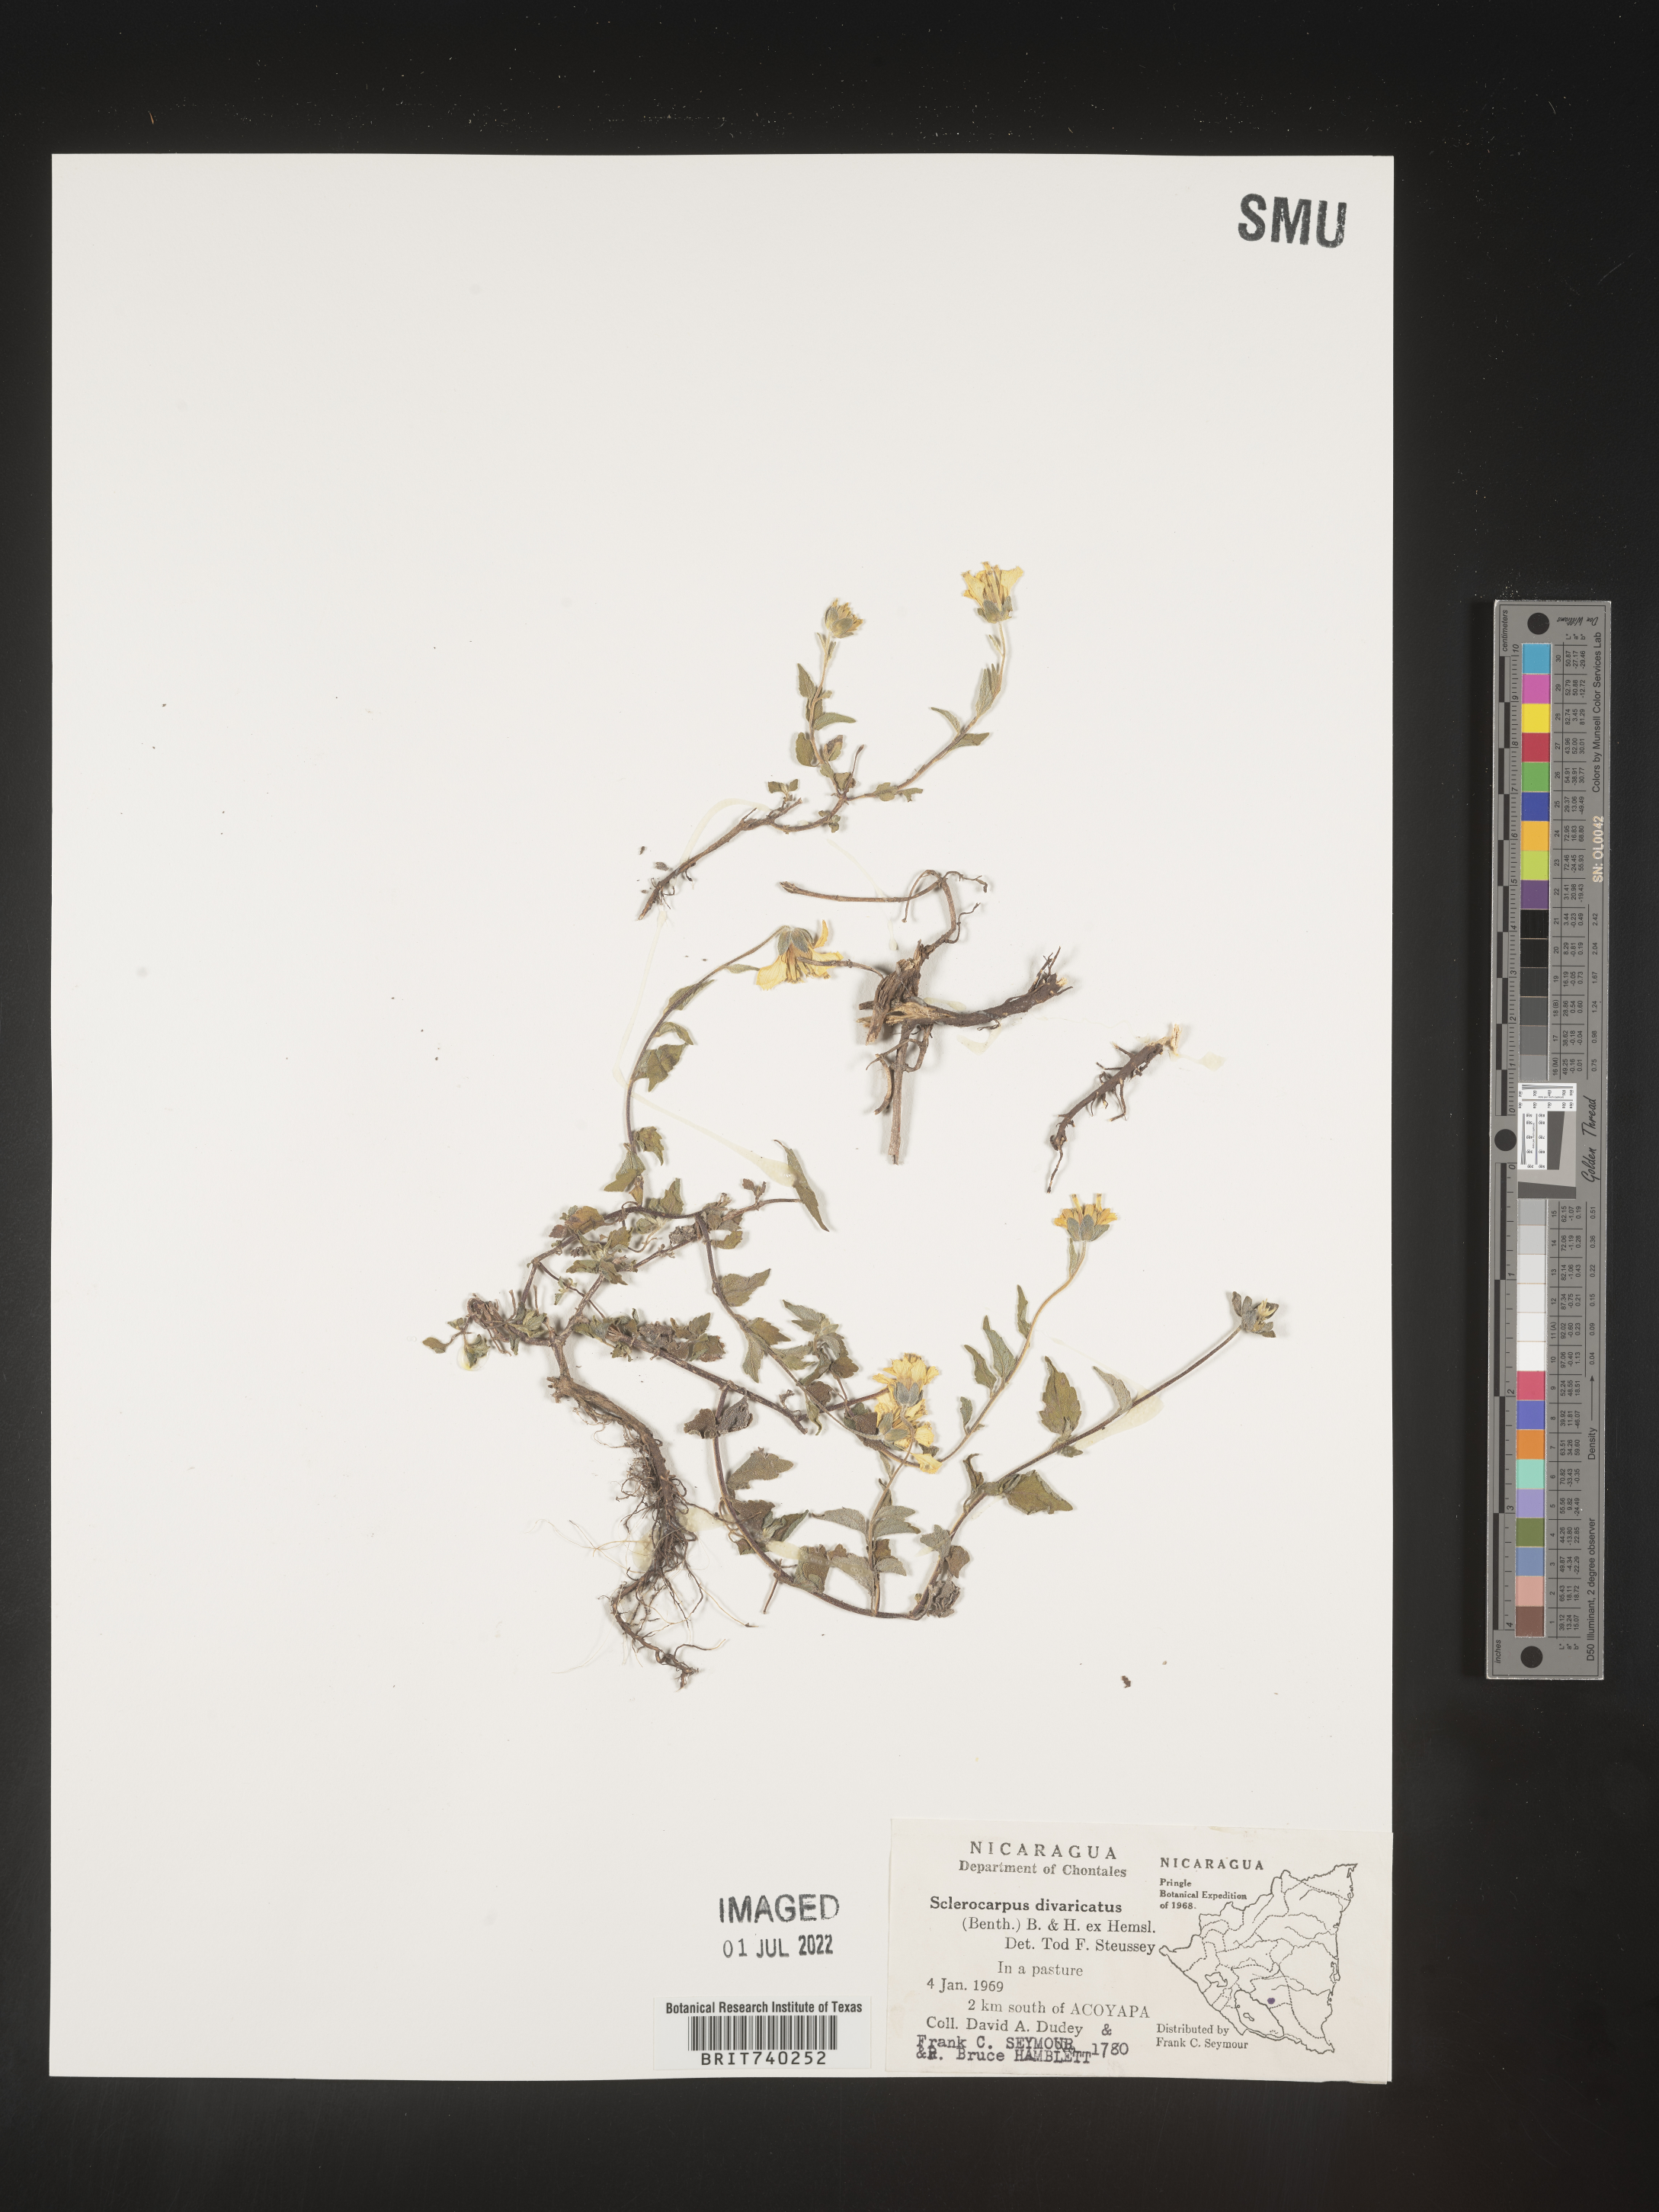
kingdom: Plantae
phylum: Tracheophyta
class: Magnoliopsida
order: Asterales
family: Asteraceae
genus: Sclerocarpus
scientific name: Sclerocarpus
